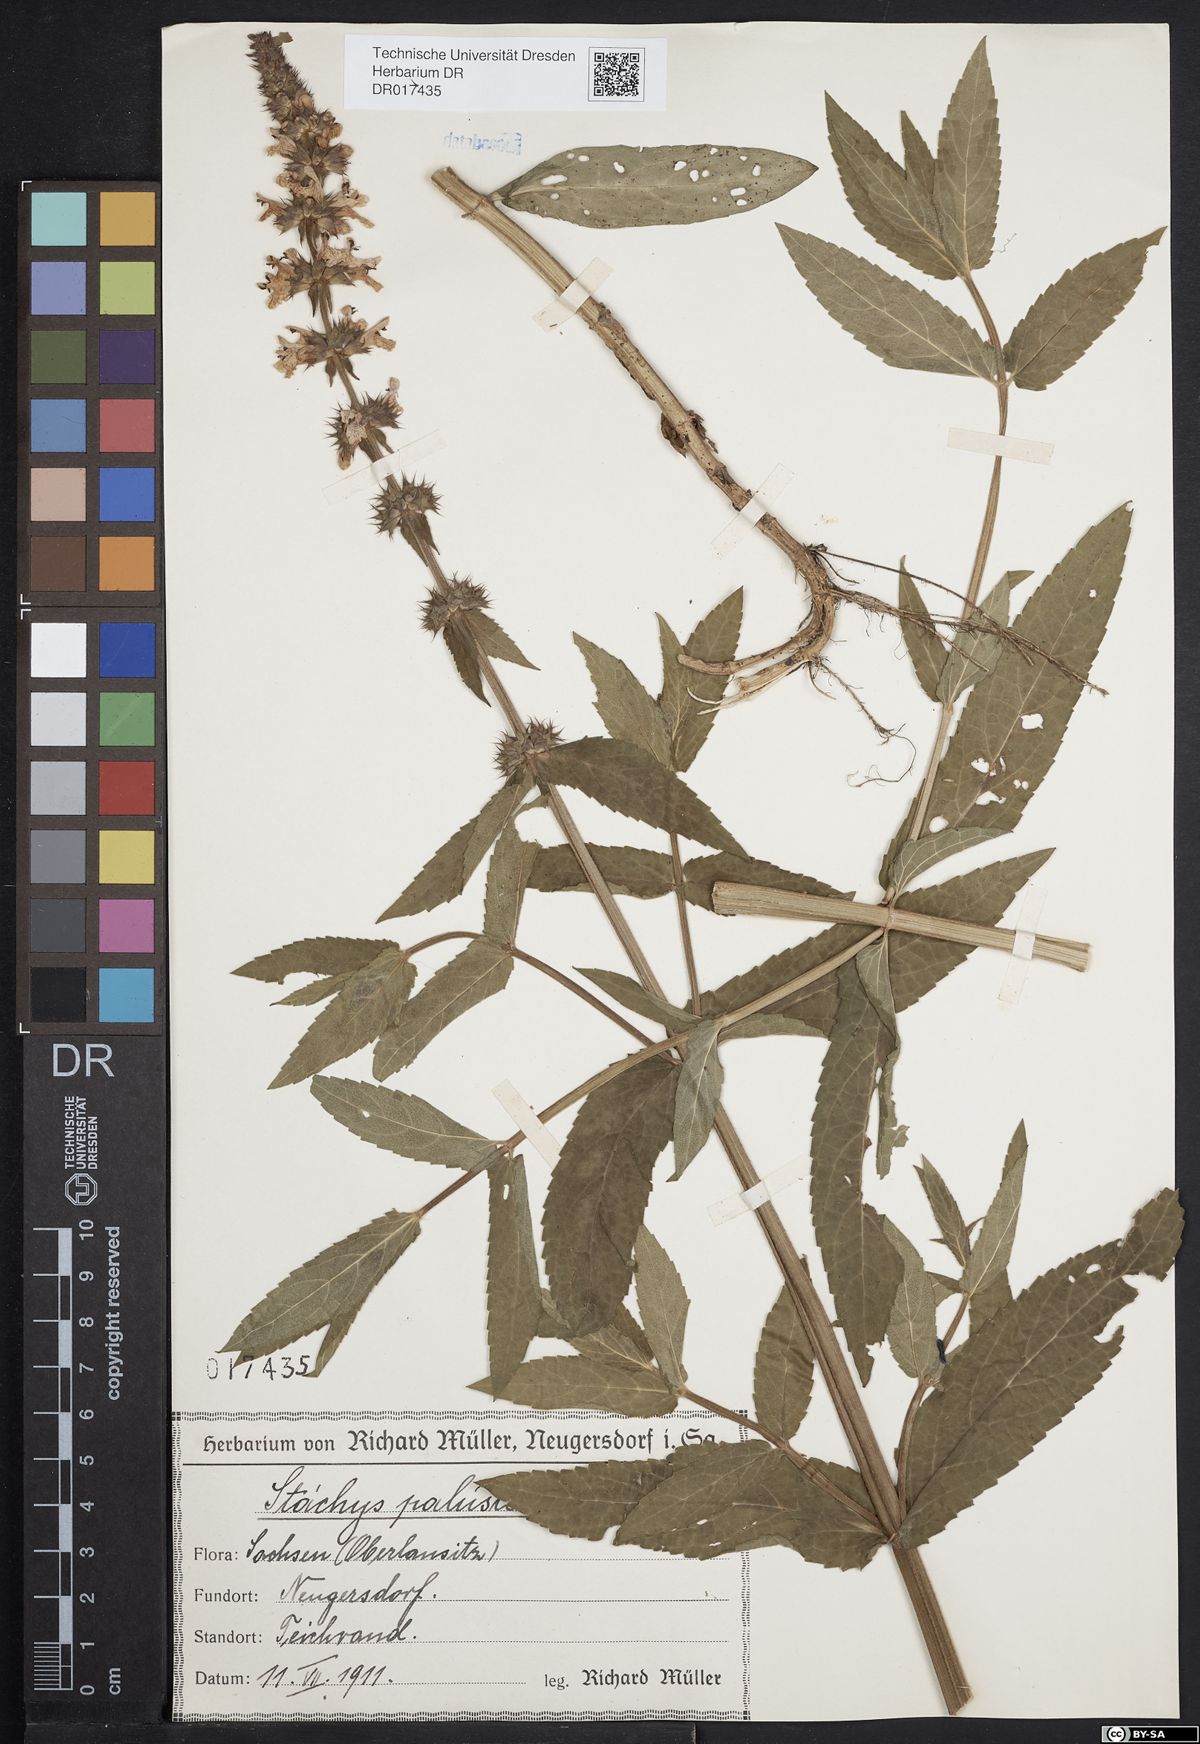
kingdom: Plantae
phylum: Tracheophyta
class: Magnoliopsida
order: Lamiales
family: Lamiaceae
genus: Stachys
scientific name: Stachys palustris
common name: Marsh woundwort
